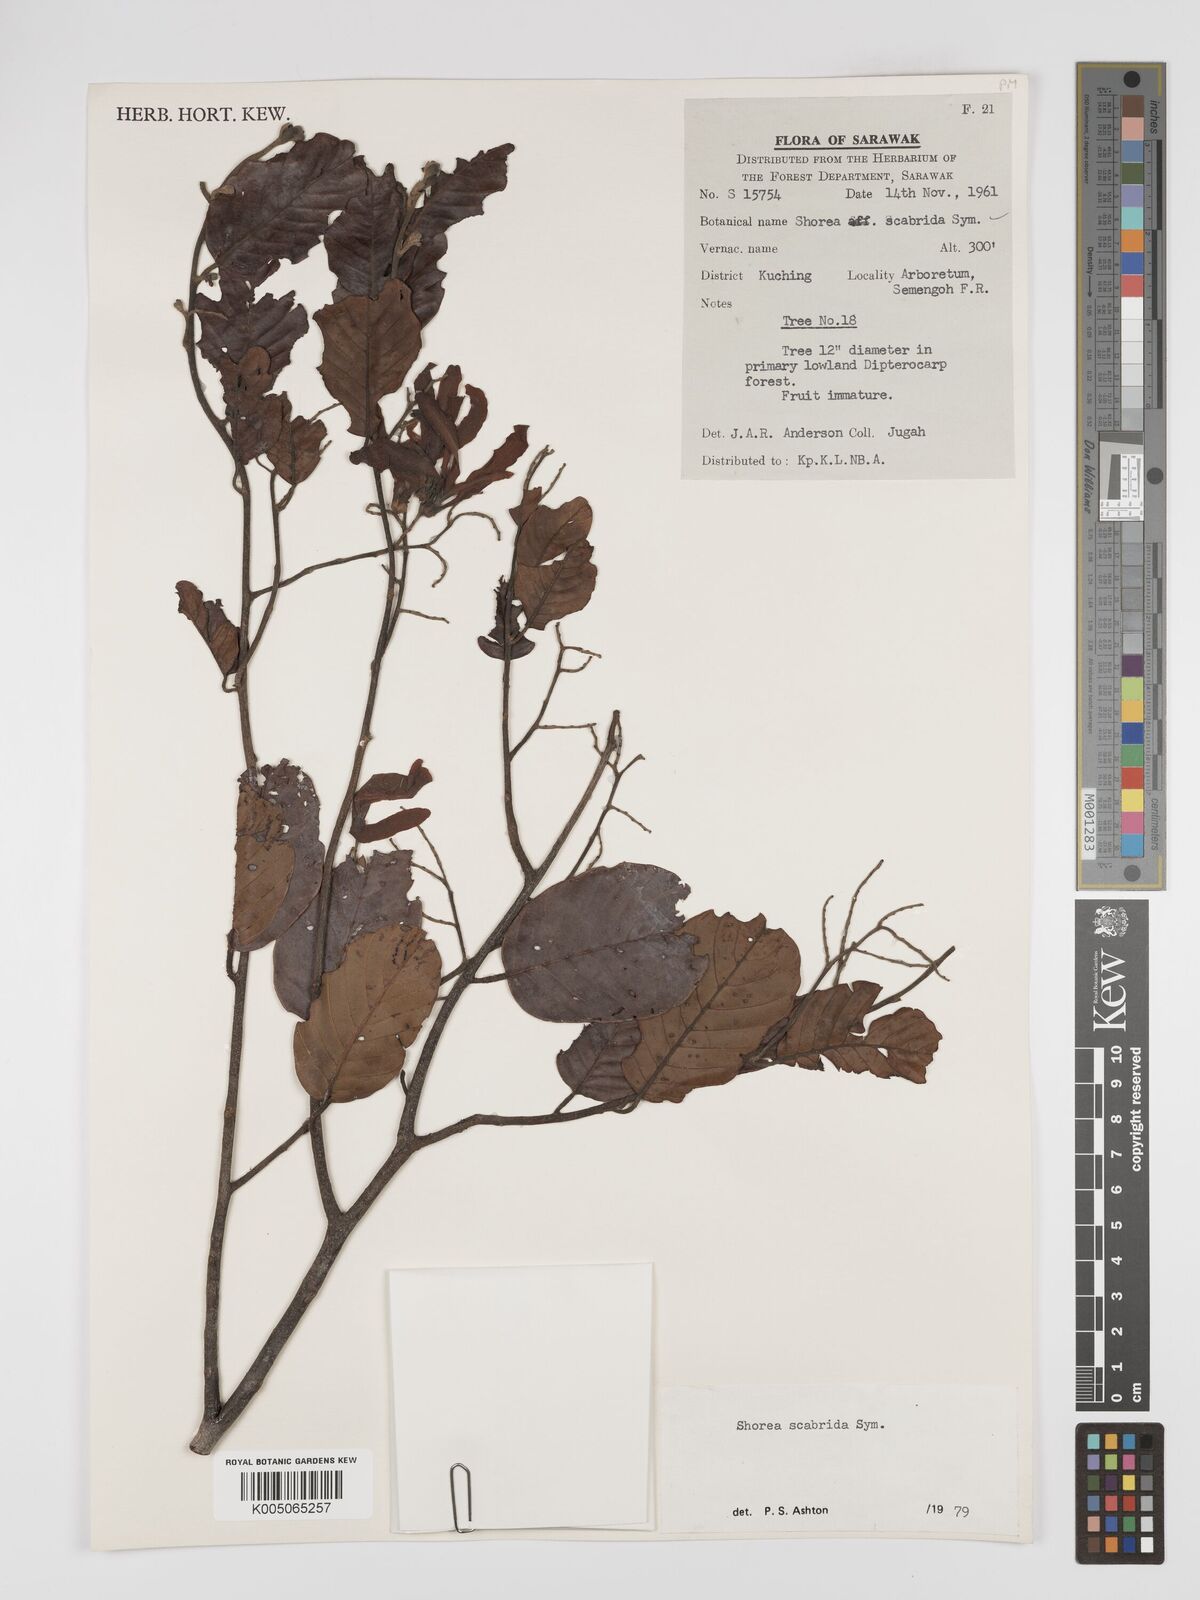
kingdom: Plantae
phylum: Tracheophyta
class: Magnoliopsida
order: Malvales
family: Dipterocarpaceae
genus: Shorea
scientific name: Shorea scabrida
